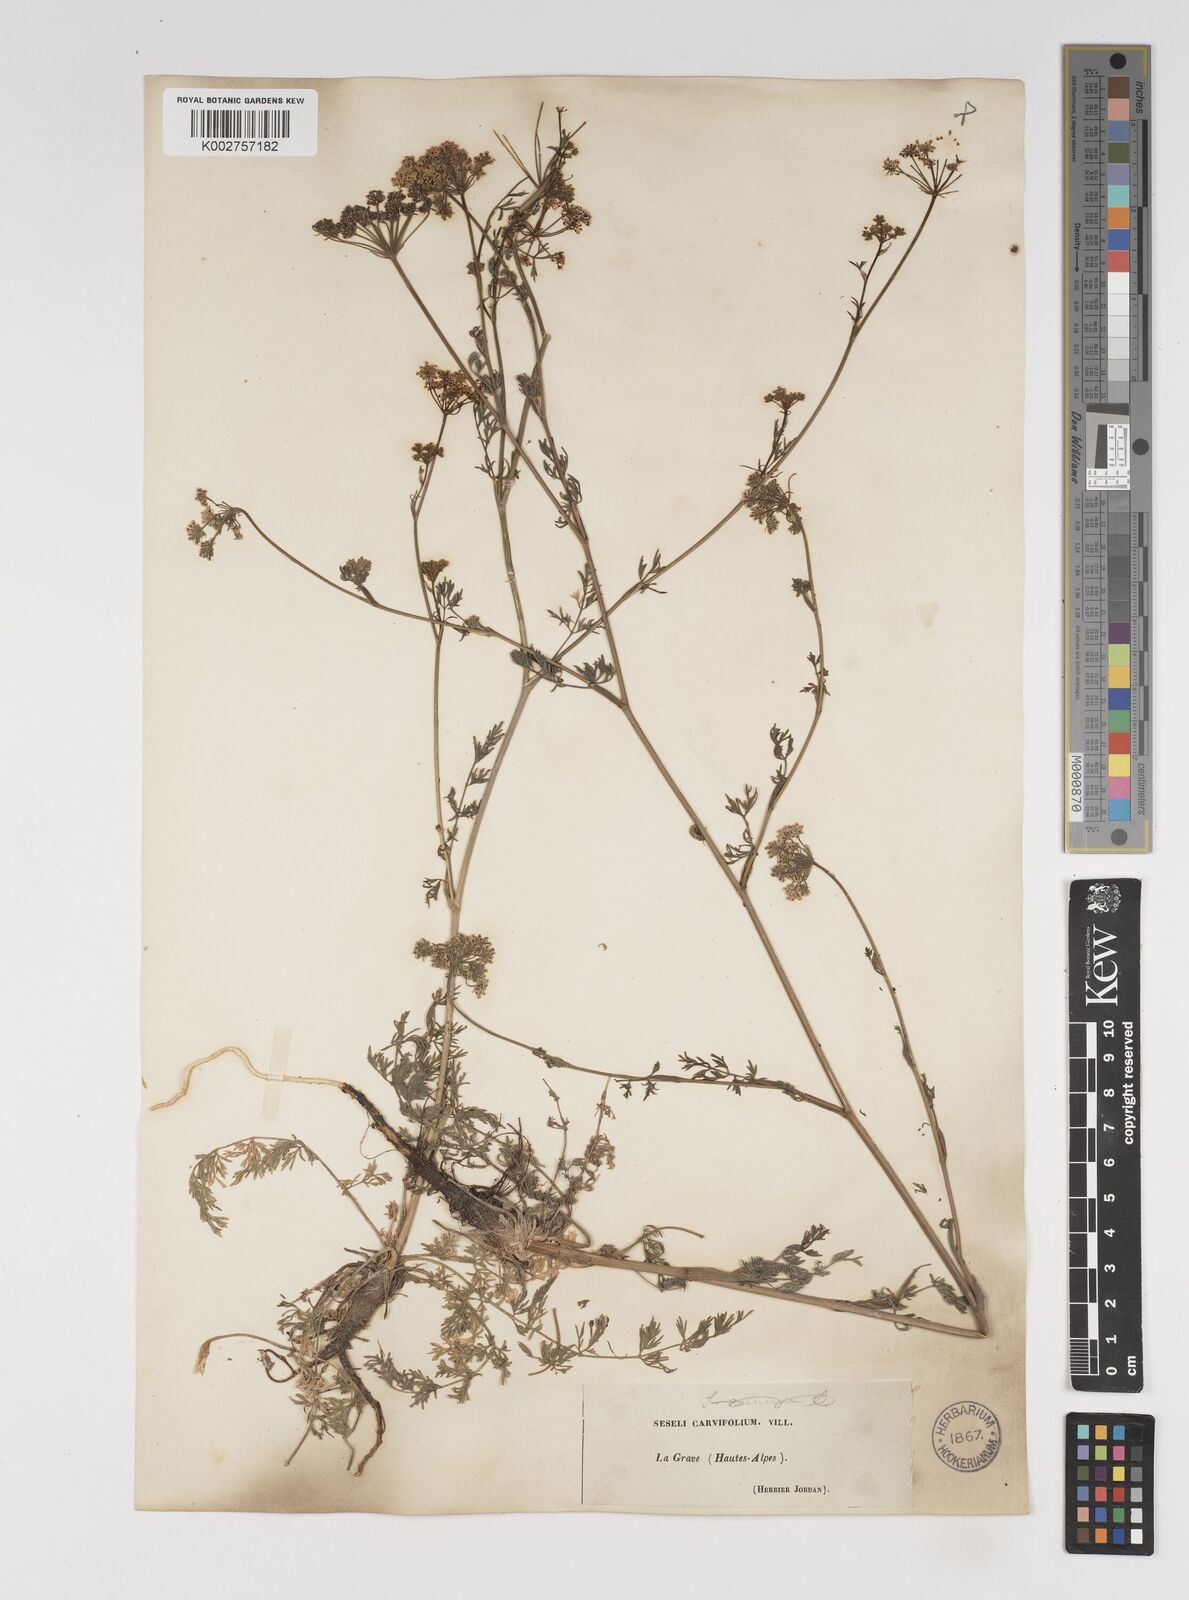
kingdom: Plantae
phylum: Tracheophyta
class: Magnoliopsida
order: Apiales
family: Apiaceae
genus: Seseli
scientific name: Seseli annuum
